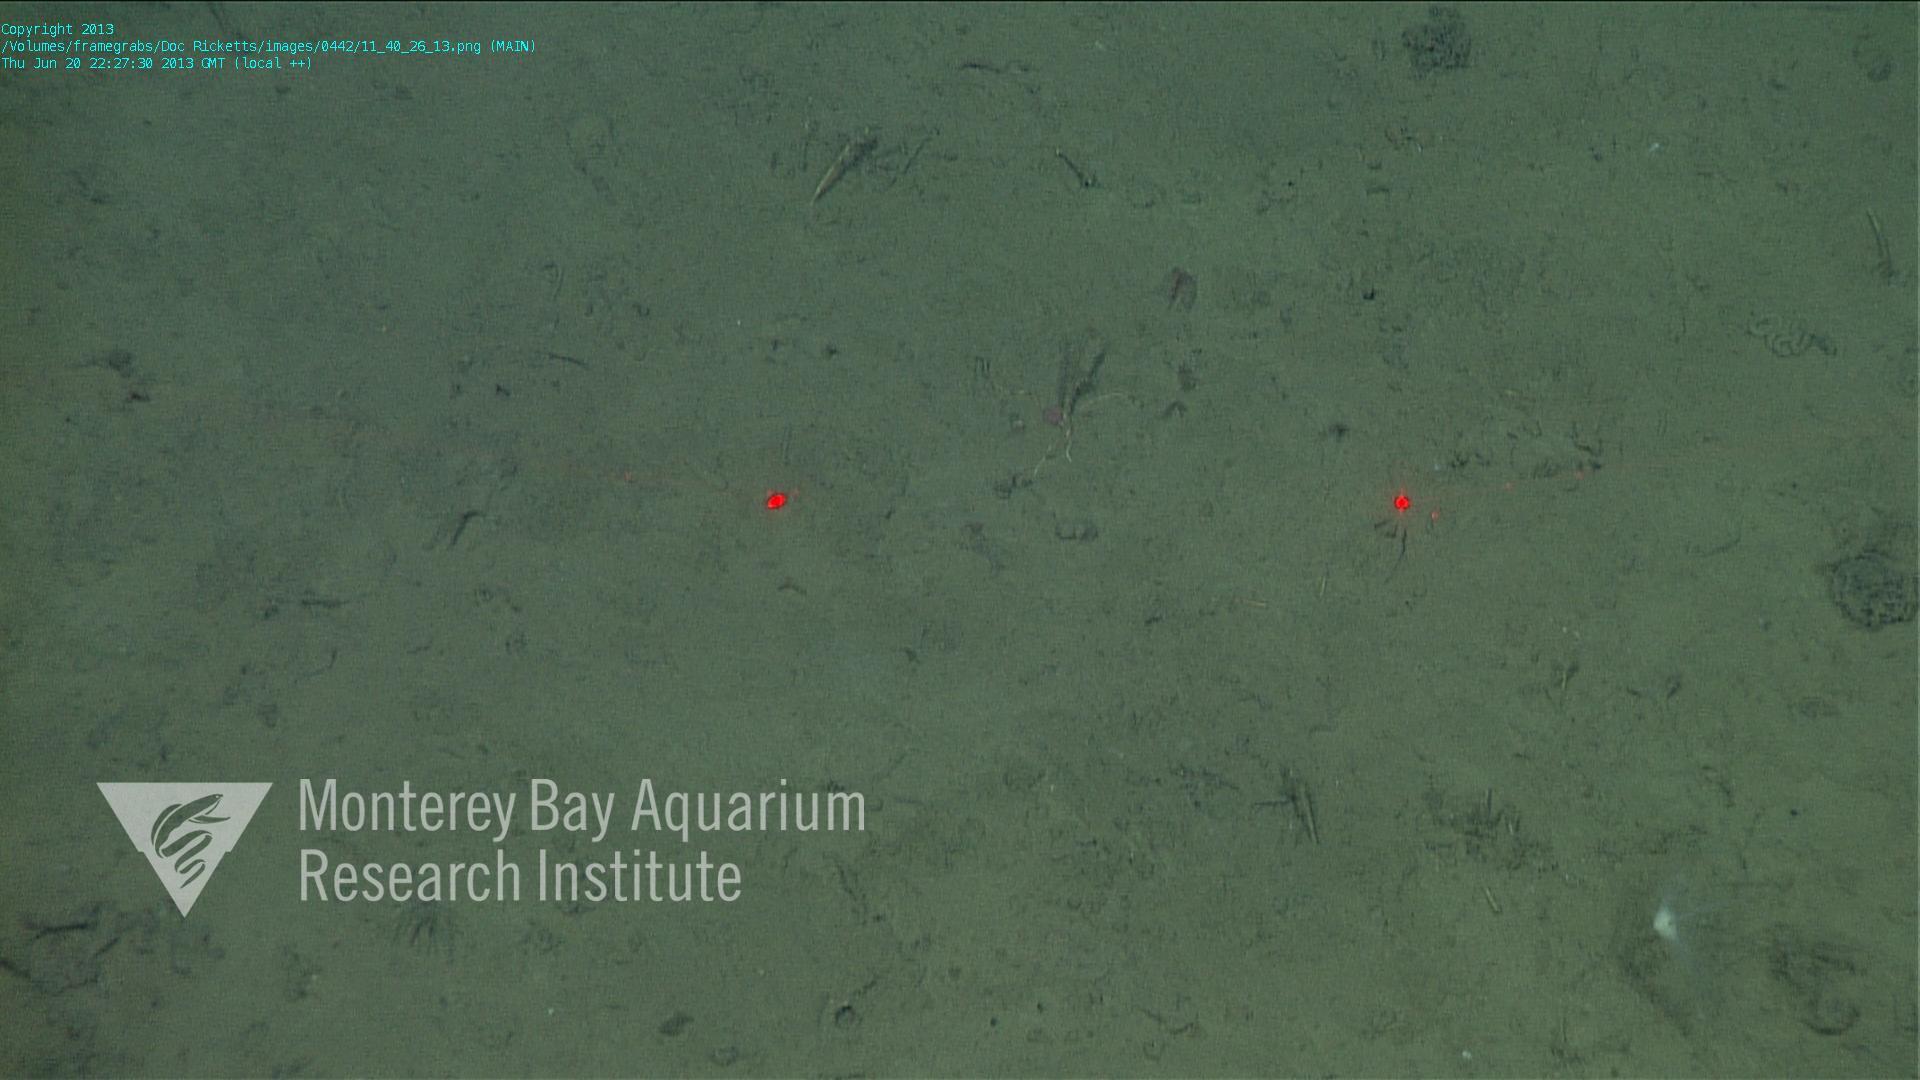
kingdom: Animalia
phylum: Porifera
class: Demospongiae
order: Poecilosclerida
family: Cladorhizidae
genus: Cladorhiza
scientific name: Cladorhiza
